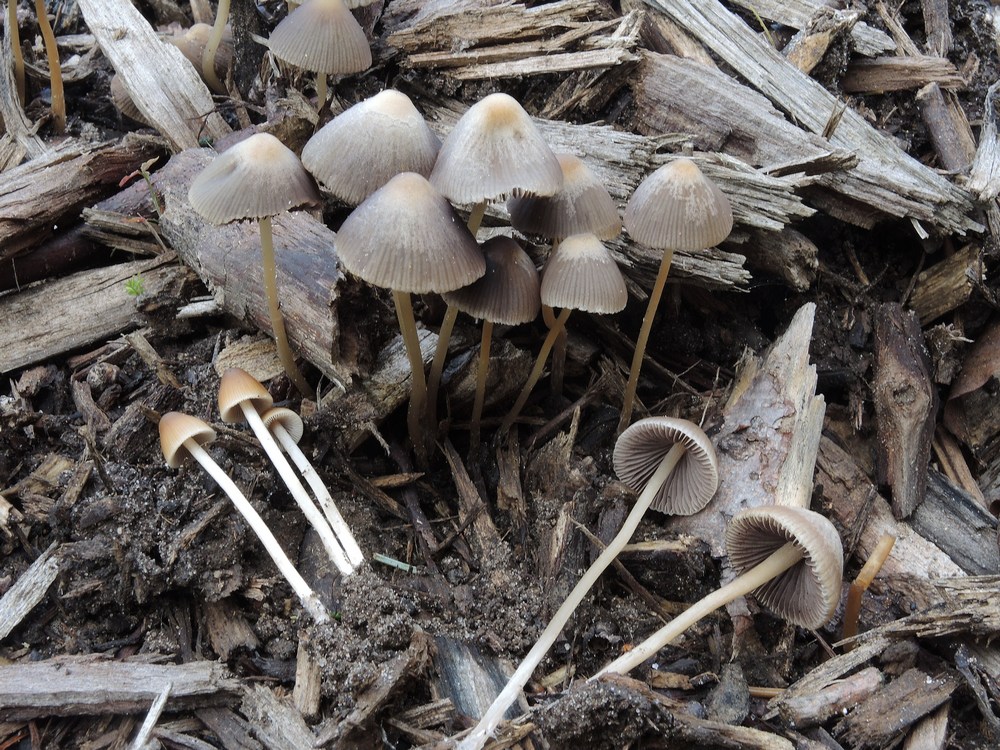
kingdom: Fungi
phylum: Basidiomycota
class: Agaricomycetes
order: Agaricales
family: Psathyrellaceae
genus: Psathyrella
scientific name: Psathyrella corrugis
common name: rødægget mørkhat
